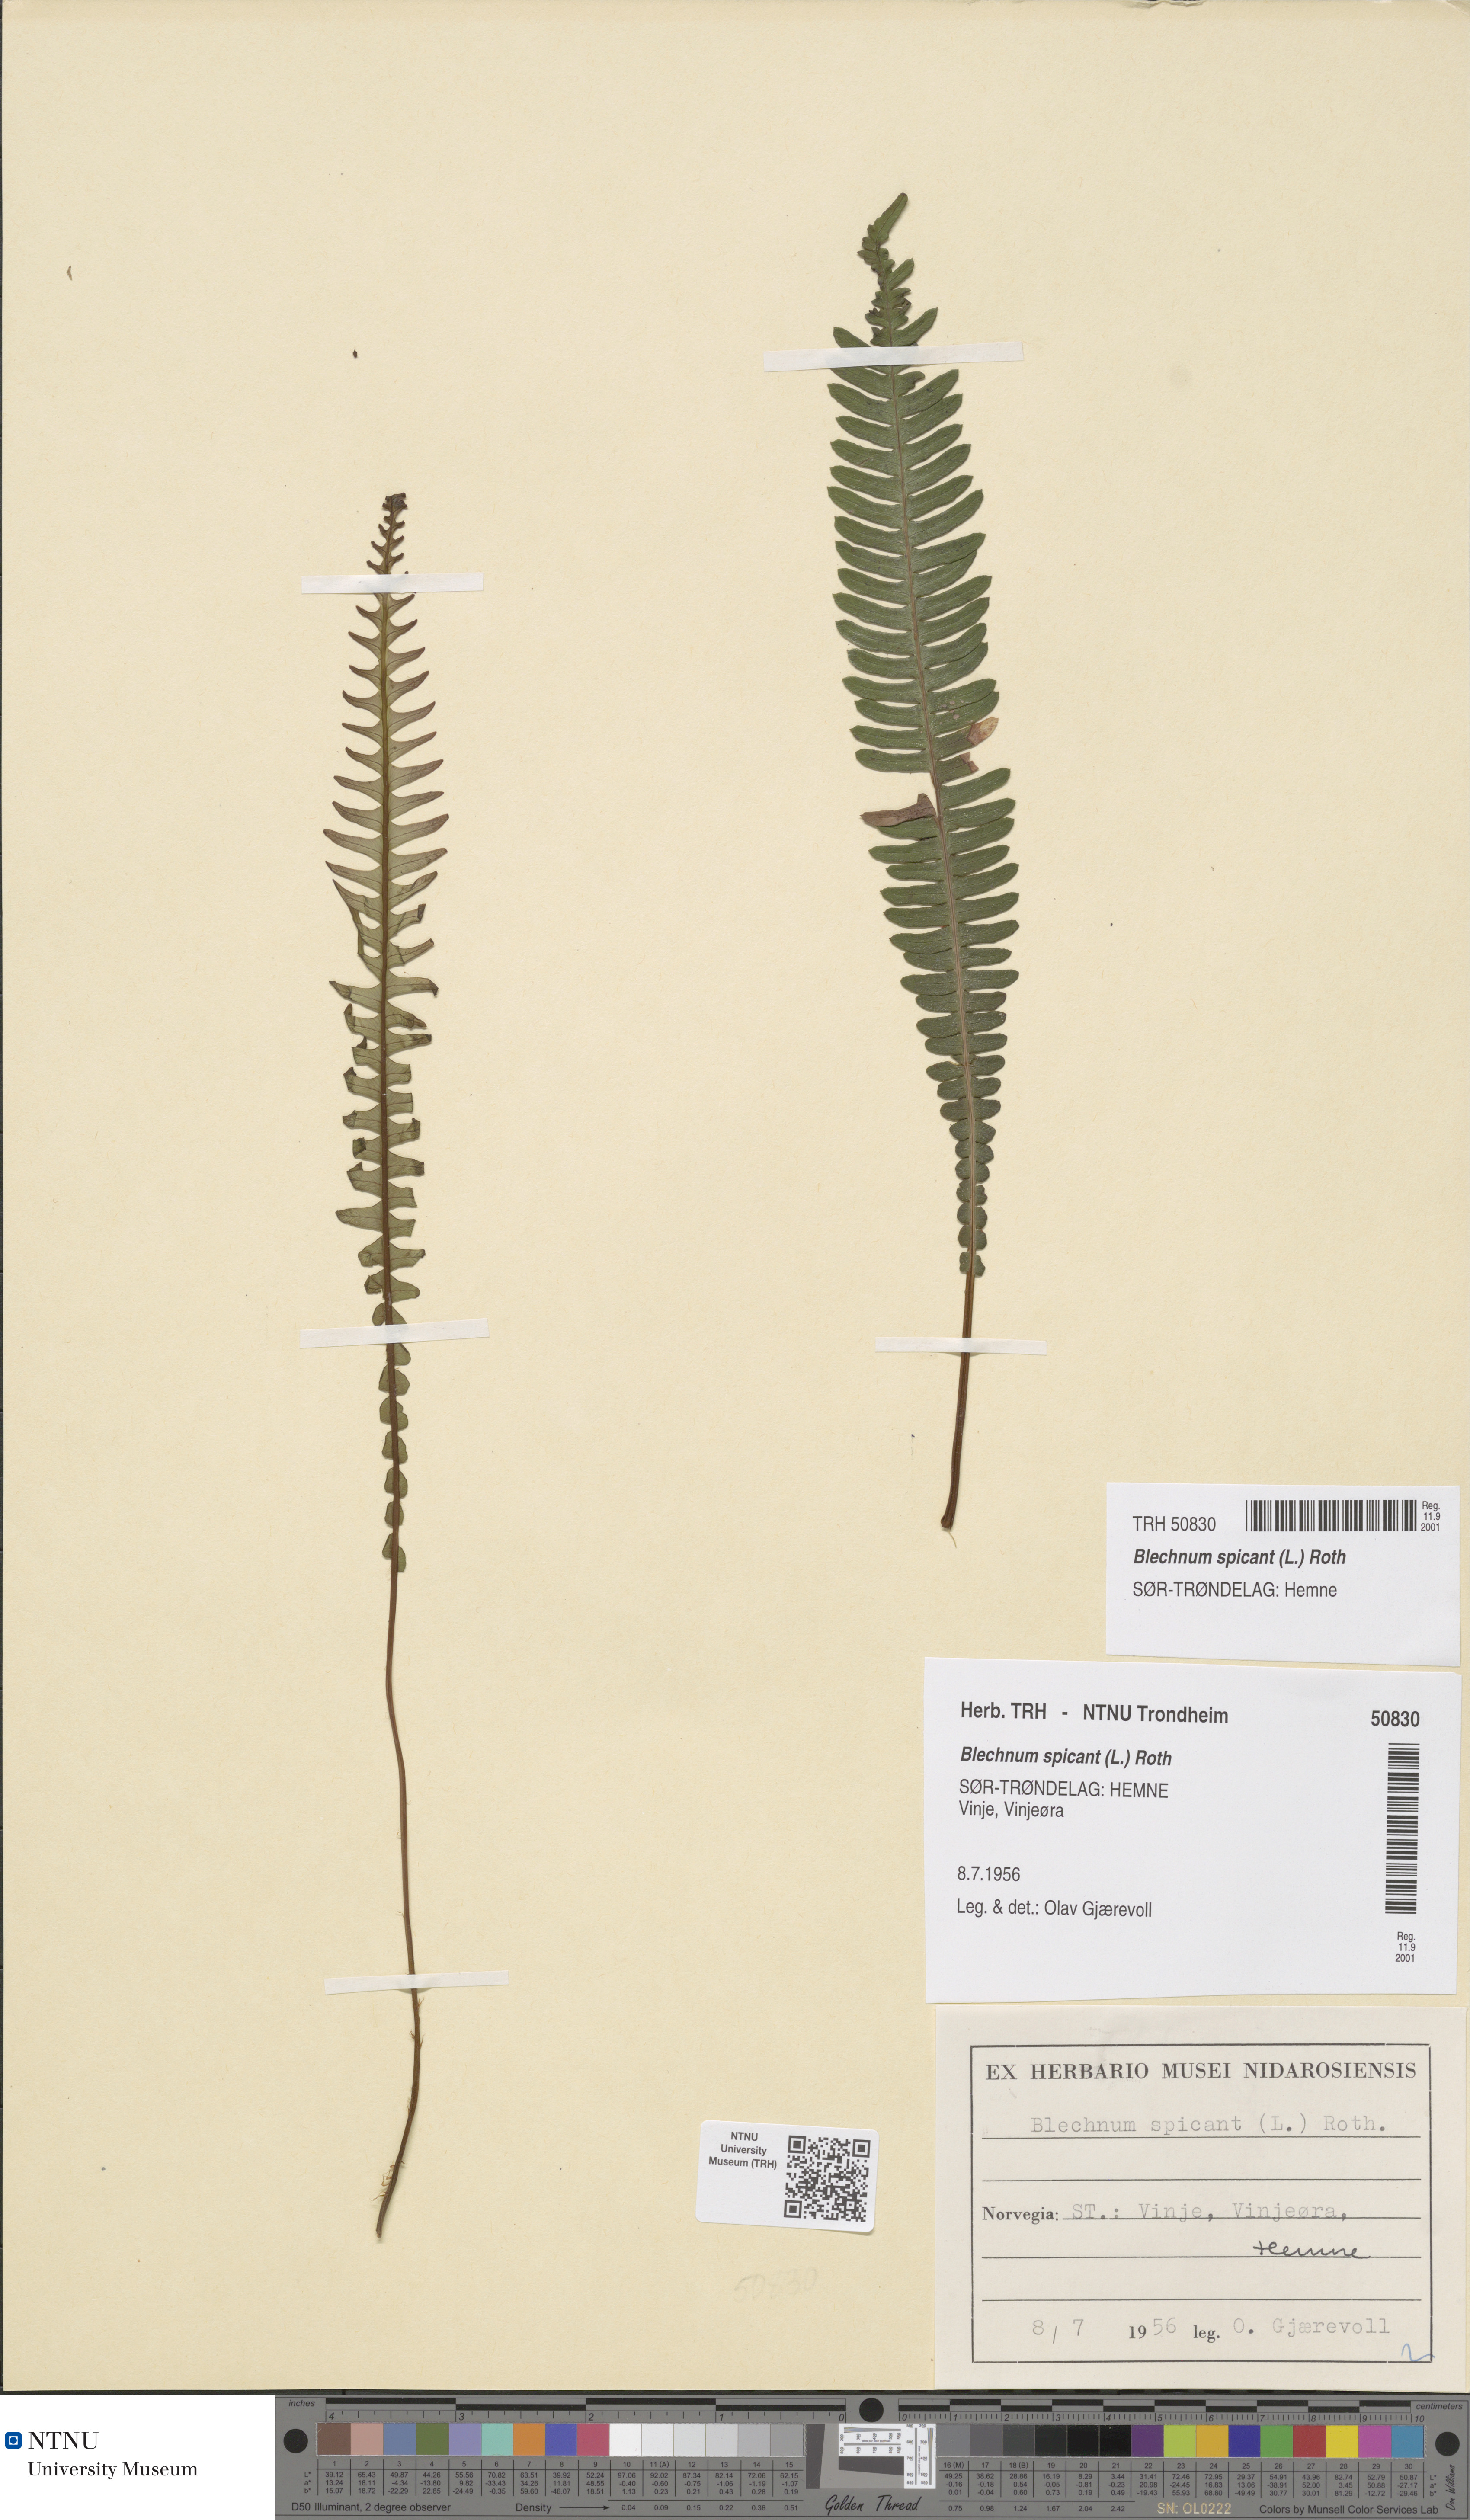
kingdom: Plantae
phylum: Tracheophyta
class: Polypodiopsida
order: Polypodiales
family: Blechnaceae
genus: Struthiopteris
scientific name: Struthiopteris spicant
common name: Deer fern
